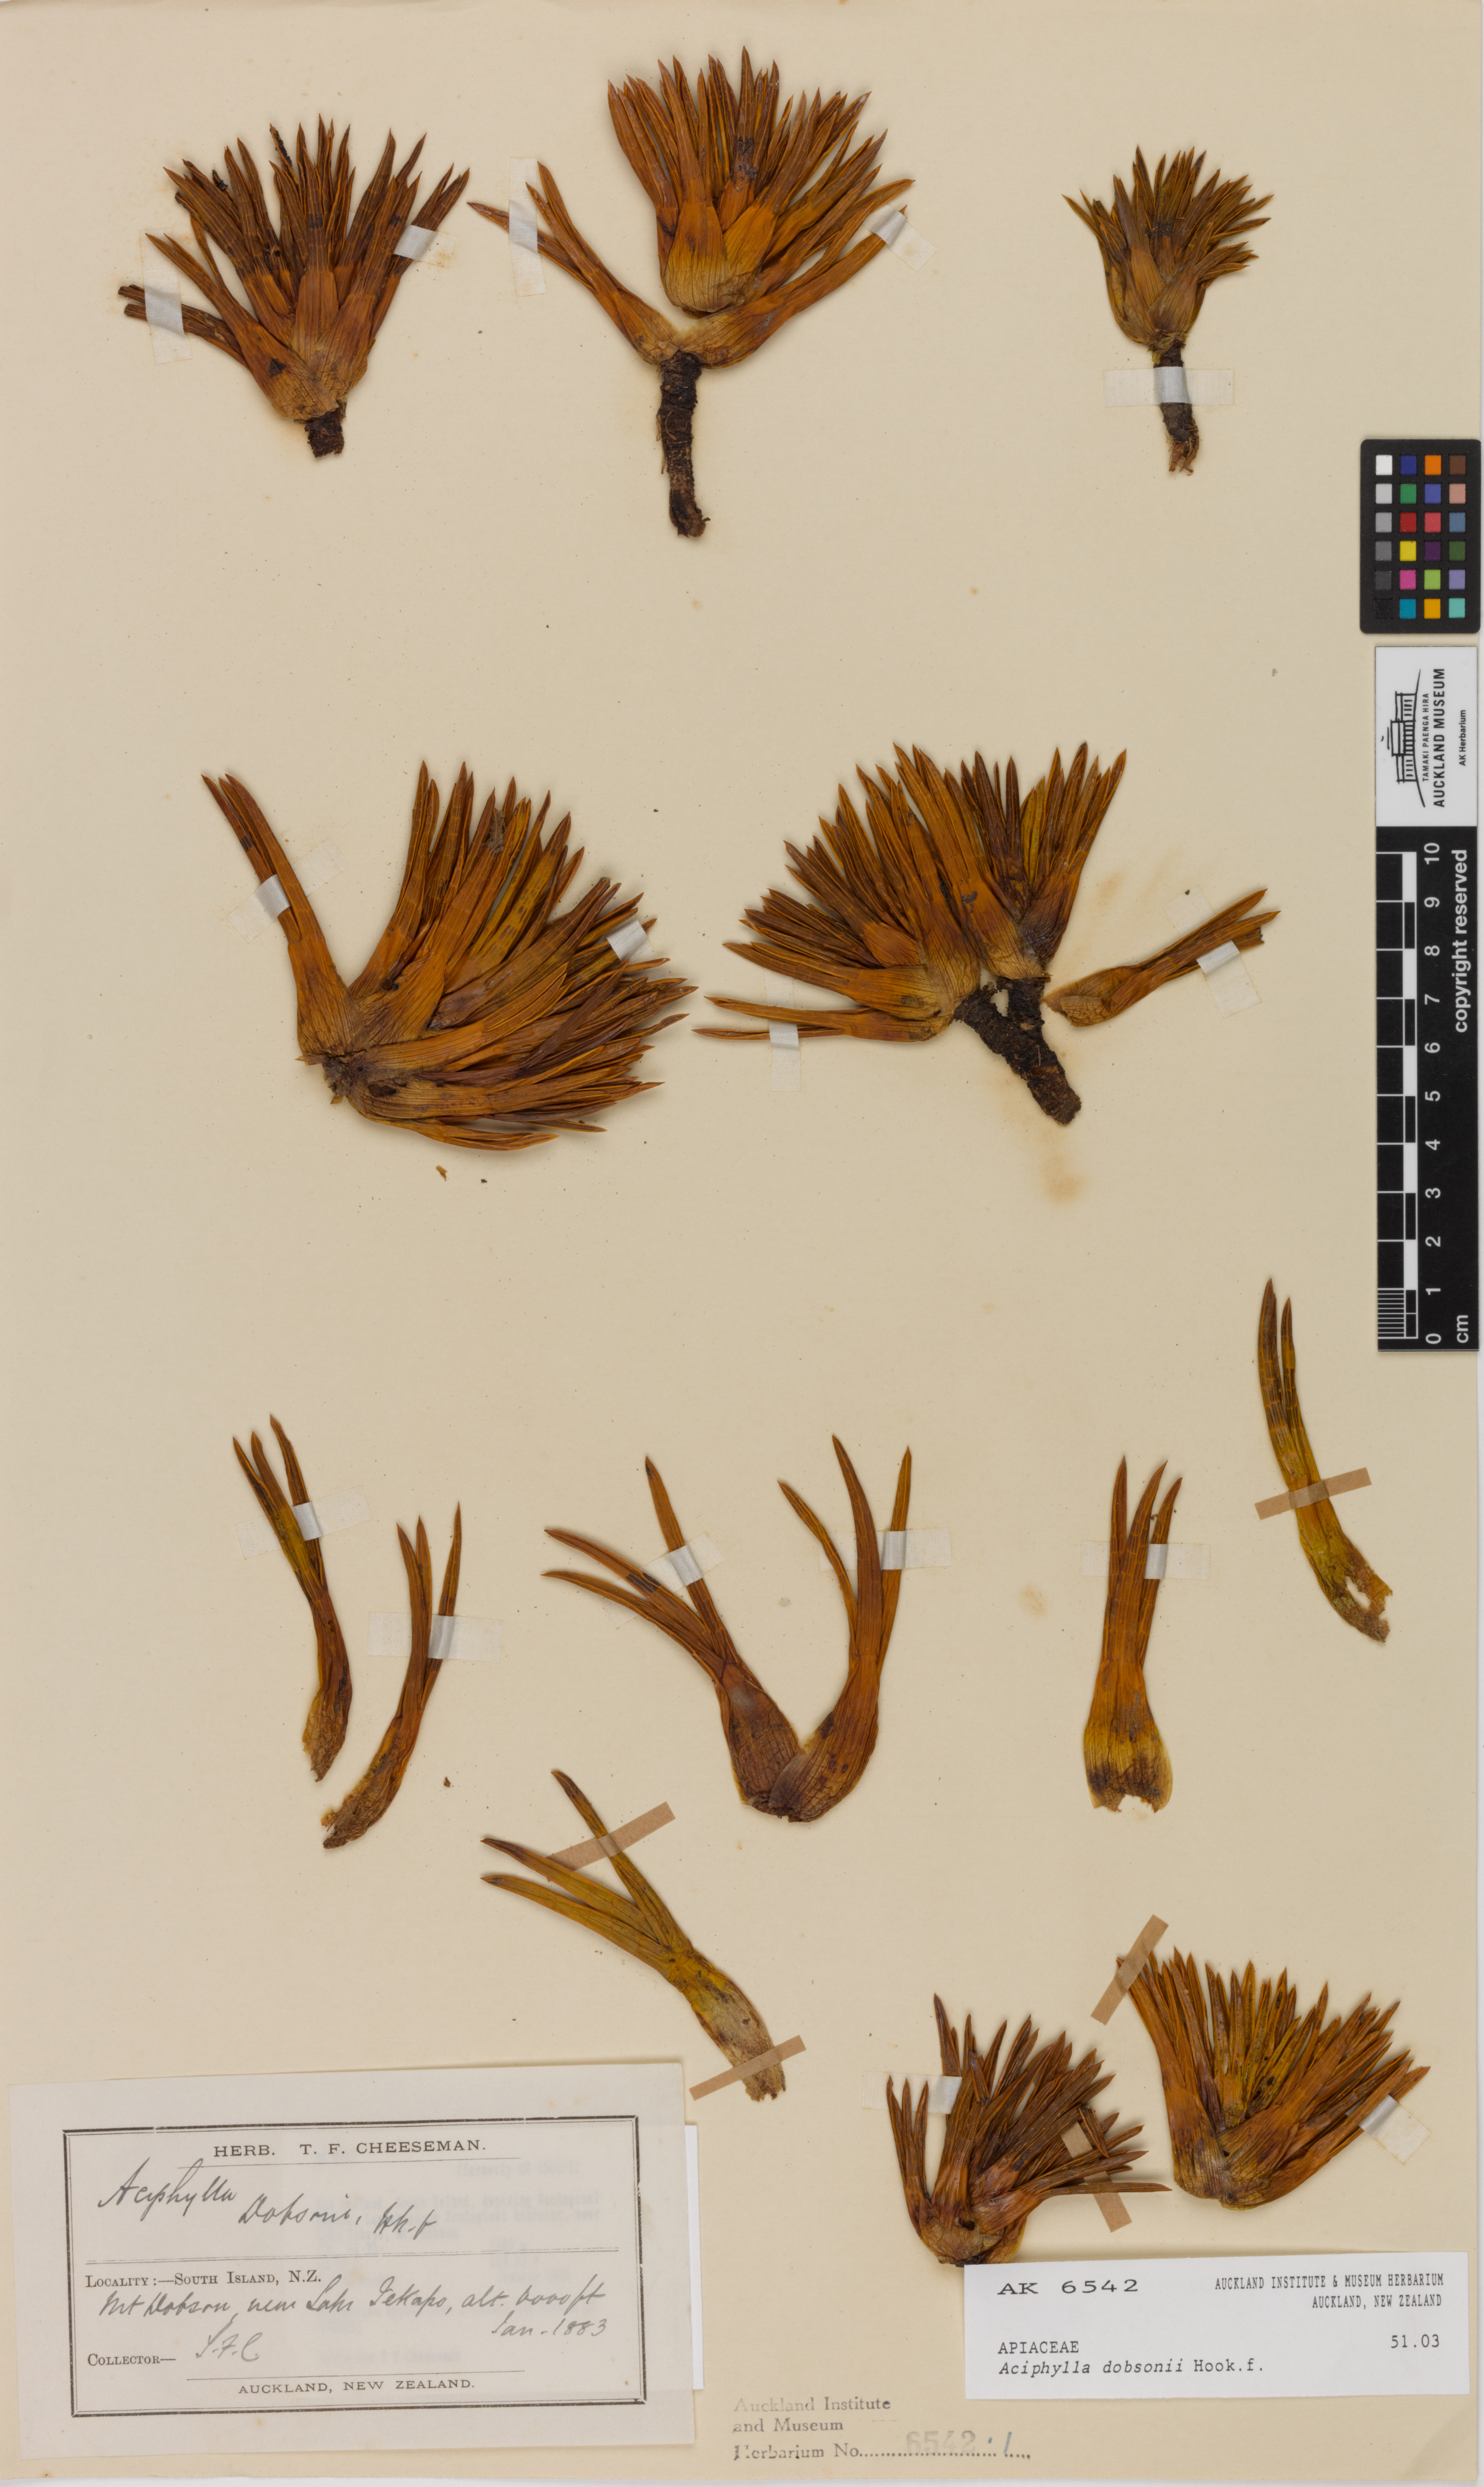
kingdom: Plantae
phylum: Tracheophyta
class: Magnoliopsida
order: Apiales
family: Apiaceae
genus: Aciphylla
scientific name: Aciphylla dobsonii
